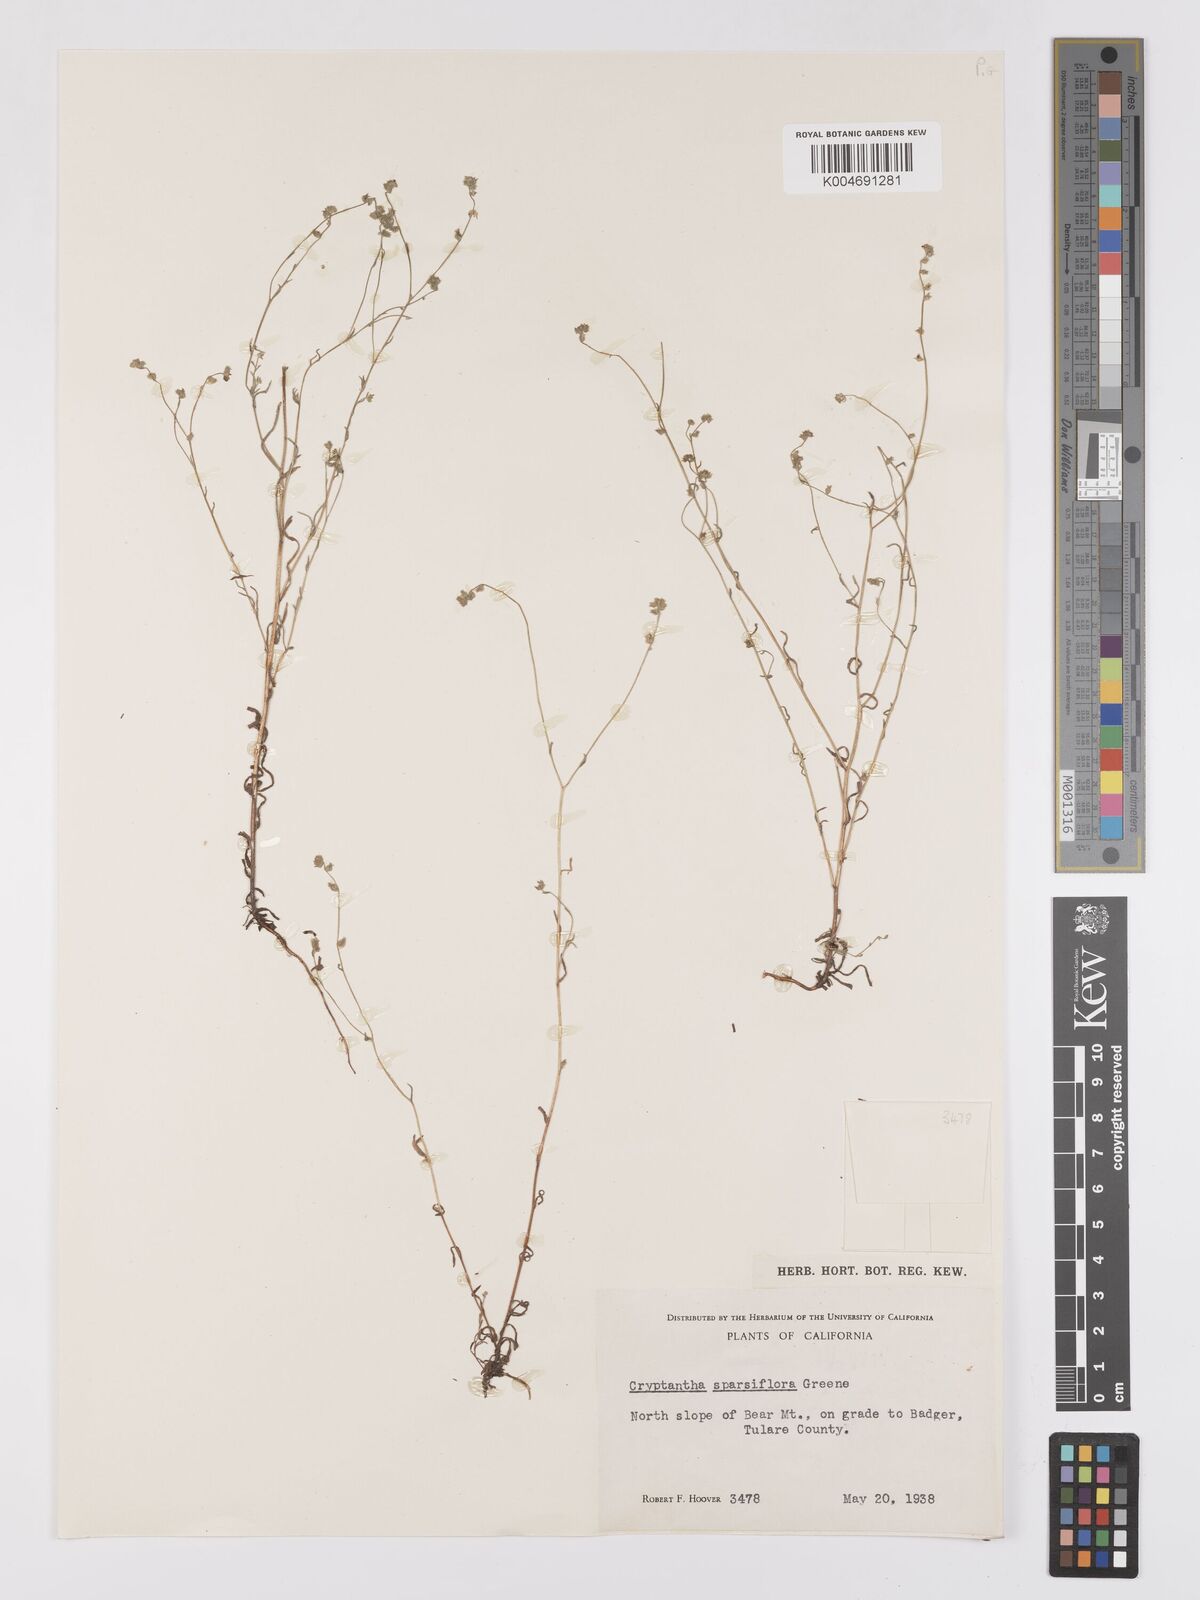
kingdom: Plantae
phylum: Tracheophyta
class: Magnoliopsida
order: Boraginales
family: Boraginaceae
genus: Cryptantha
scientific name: Cryptantha sparsiflora
